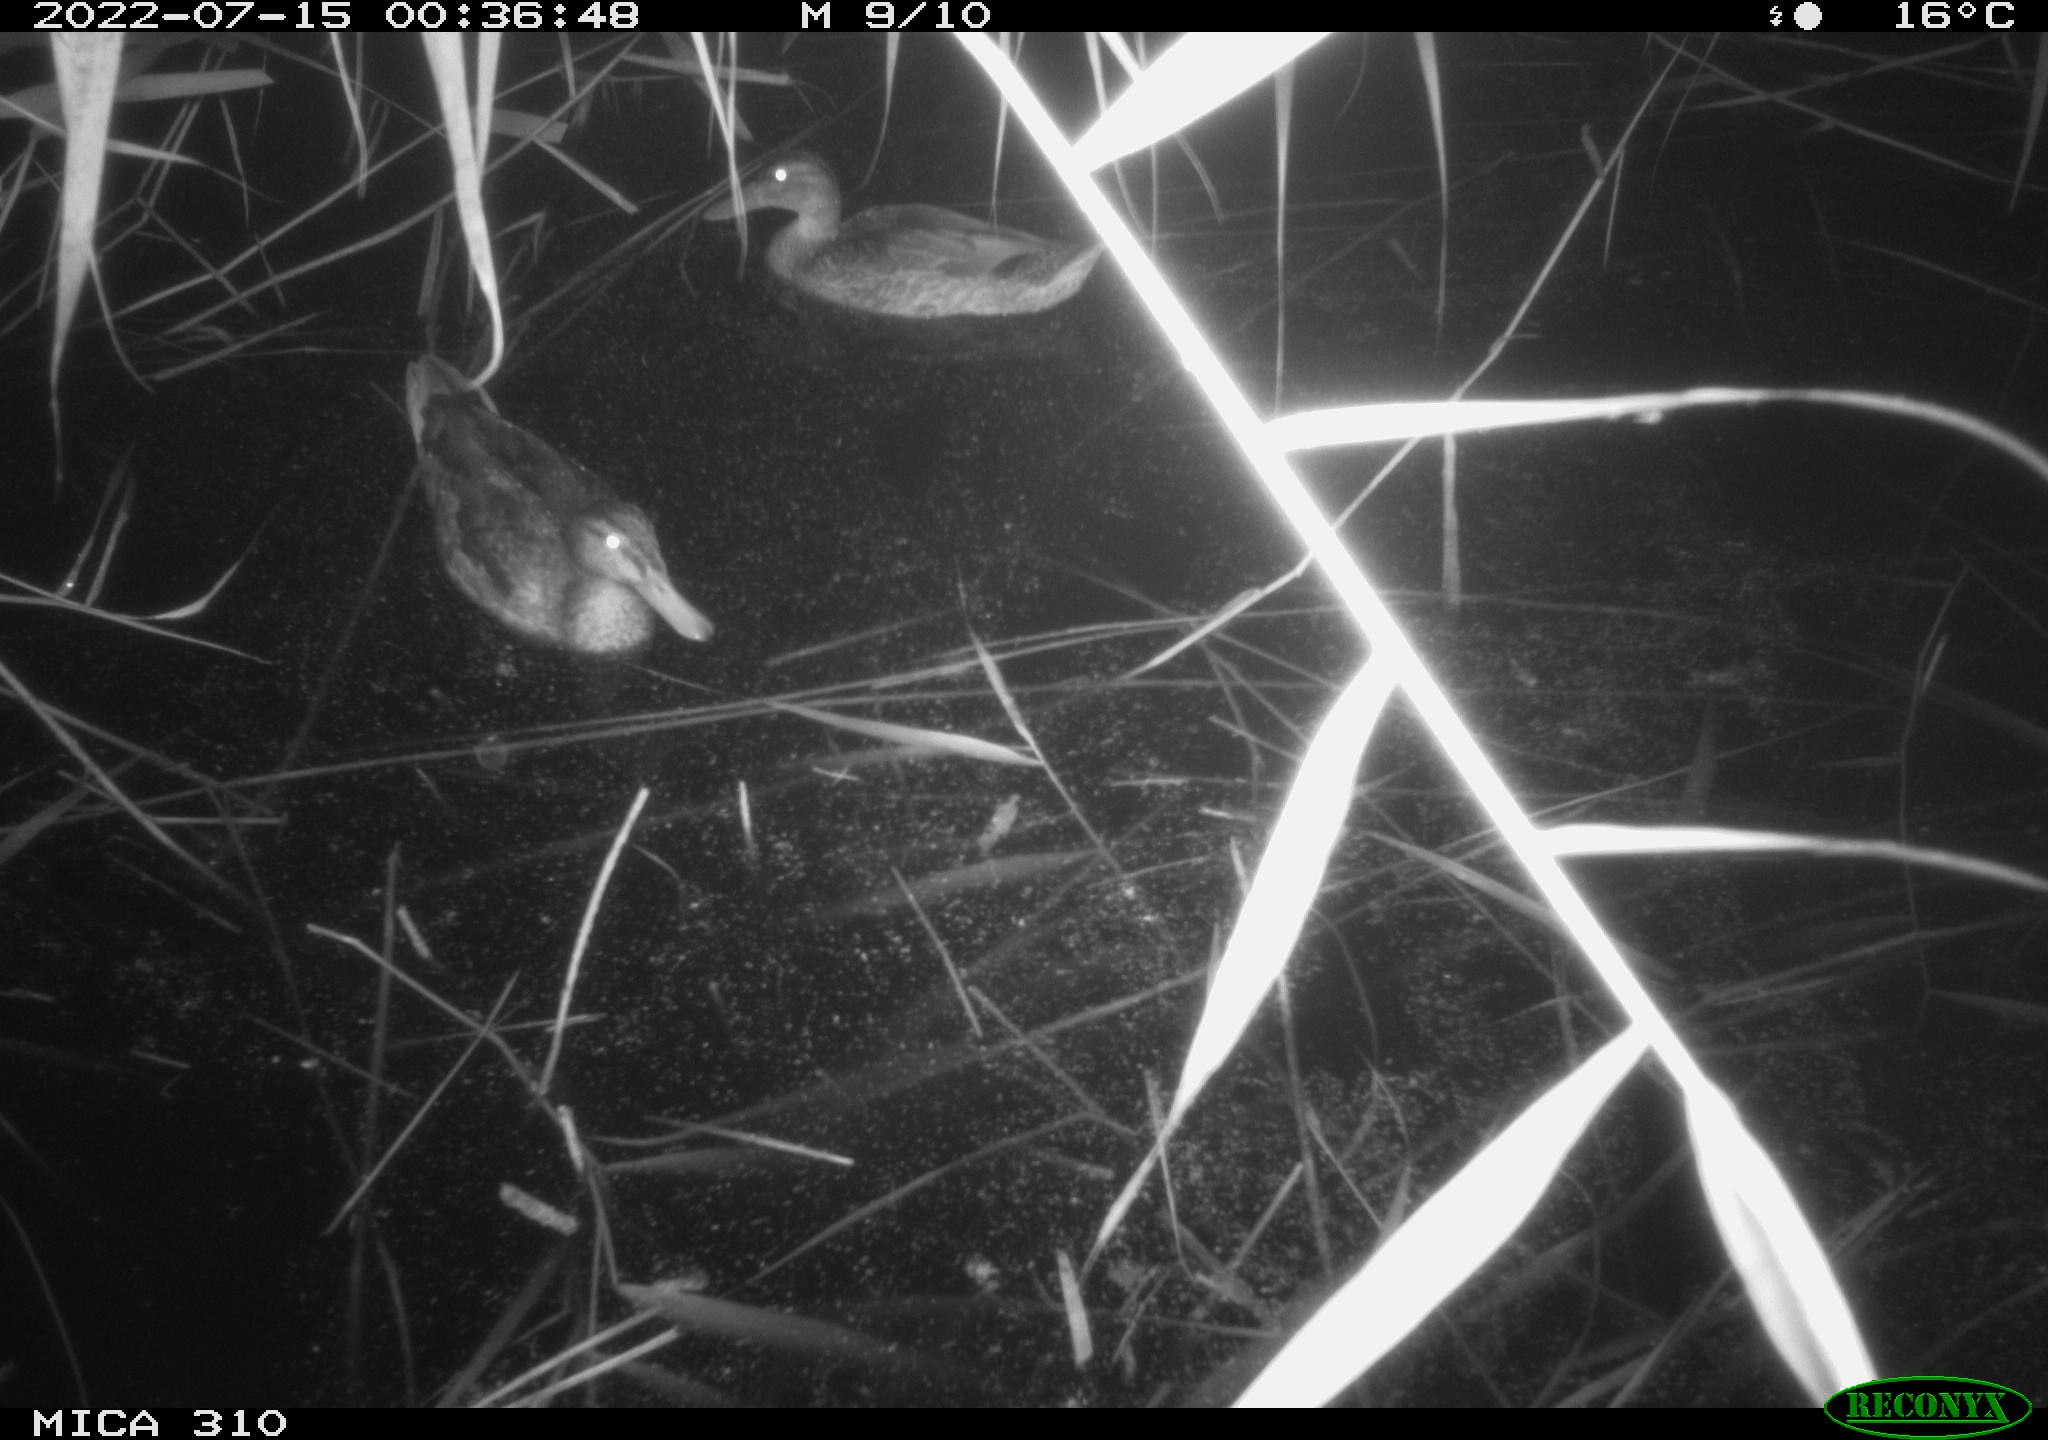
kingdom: Animalia
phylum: Chordata
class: Aves
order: Anseriformes
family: Anatidae
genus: Anas
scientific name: Anas platyrhynchos
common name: Mallard
